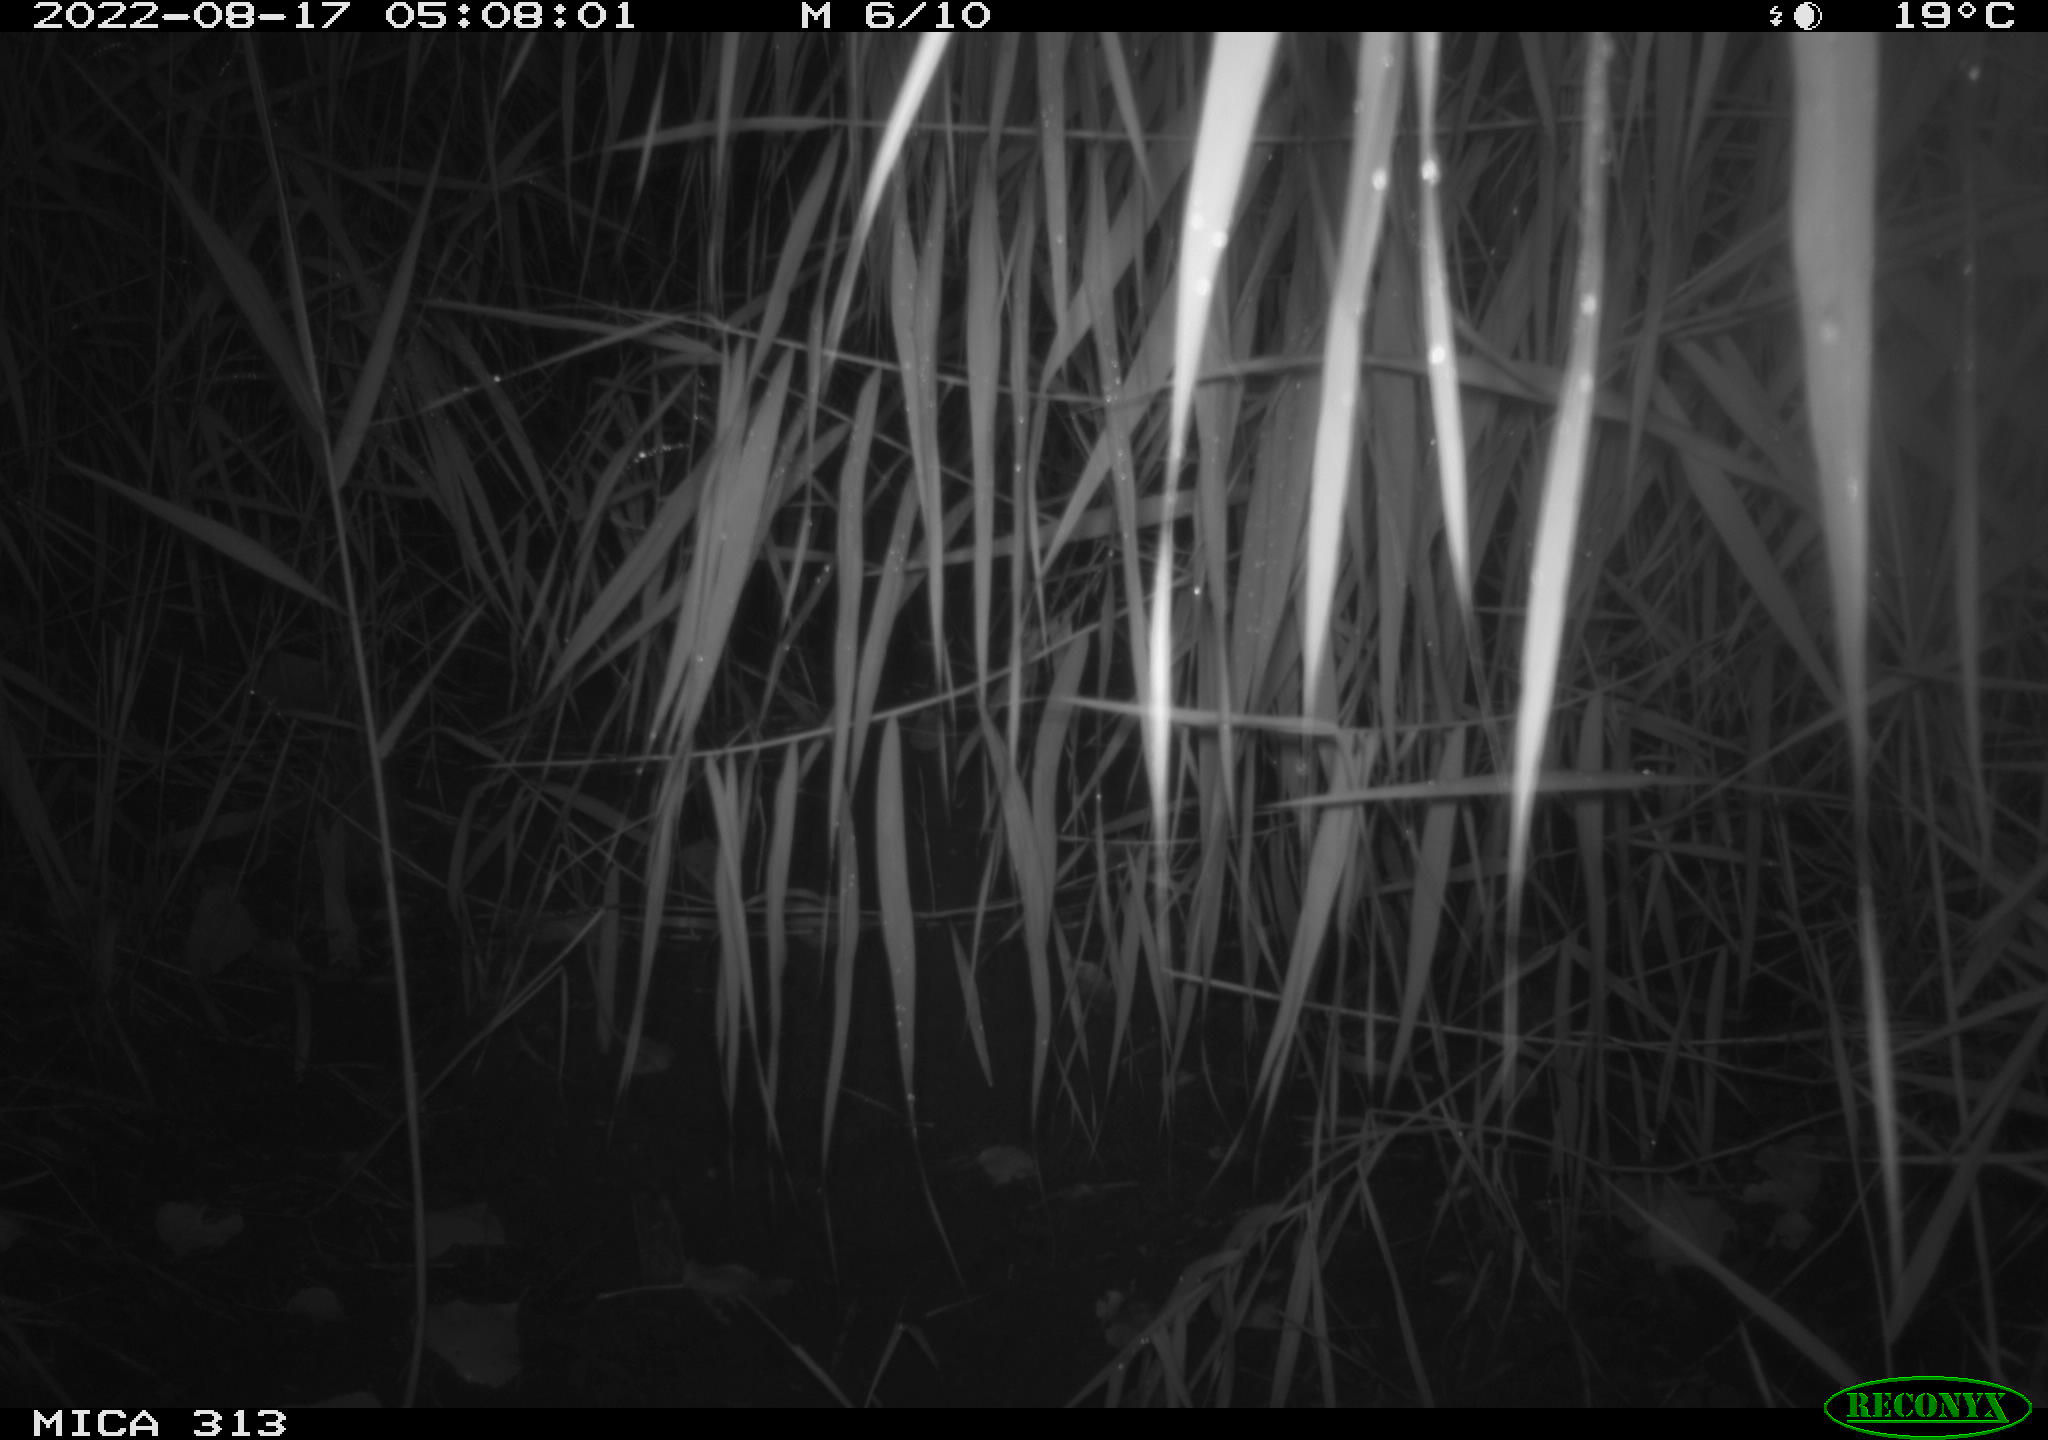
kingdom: Animalia
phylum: Chordata
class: Mammalia
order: Rodentia
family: Muridae
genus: Rattus
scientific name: Rattus norvegicus
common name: Brown rat
